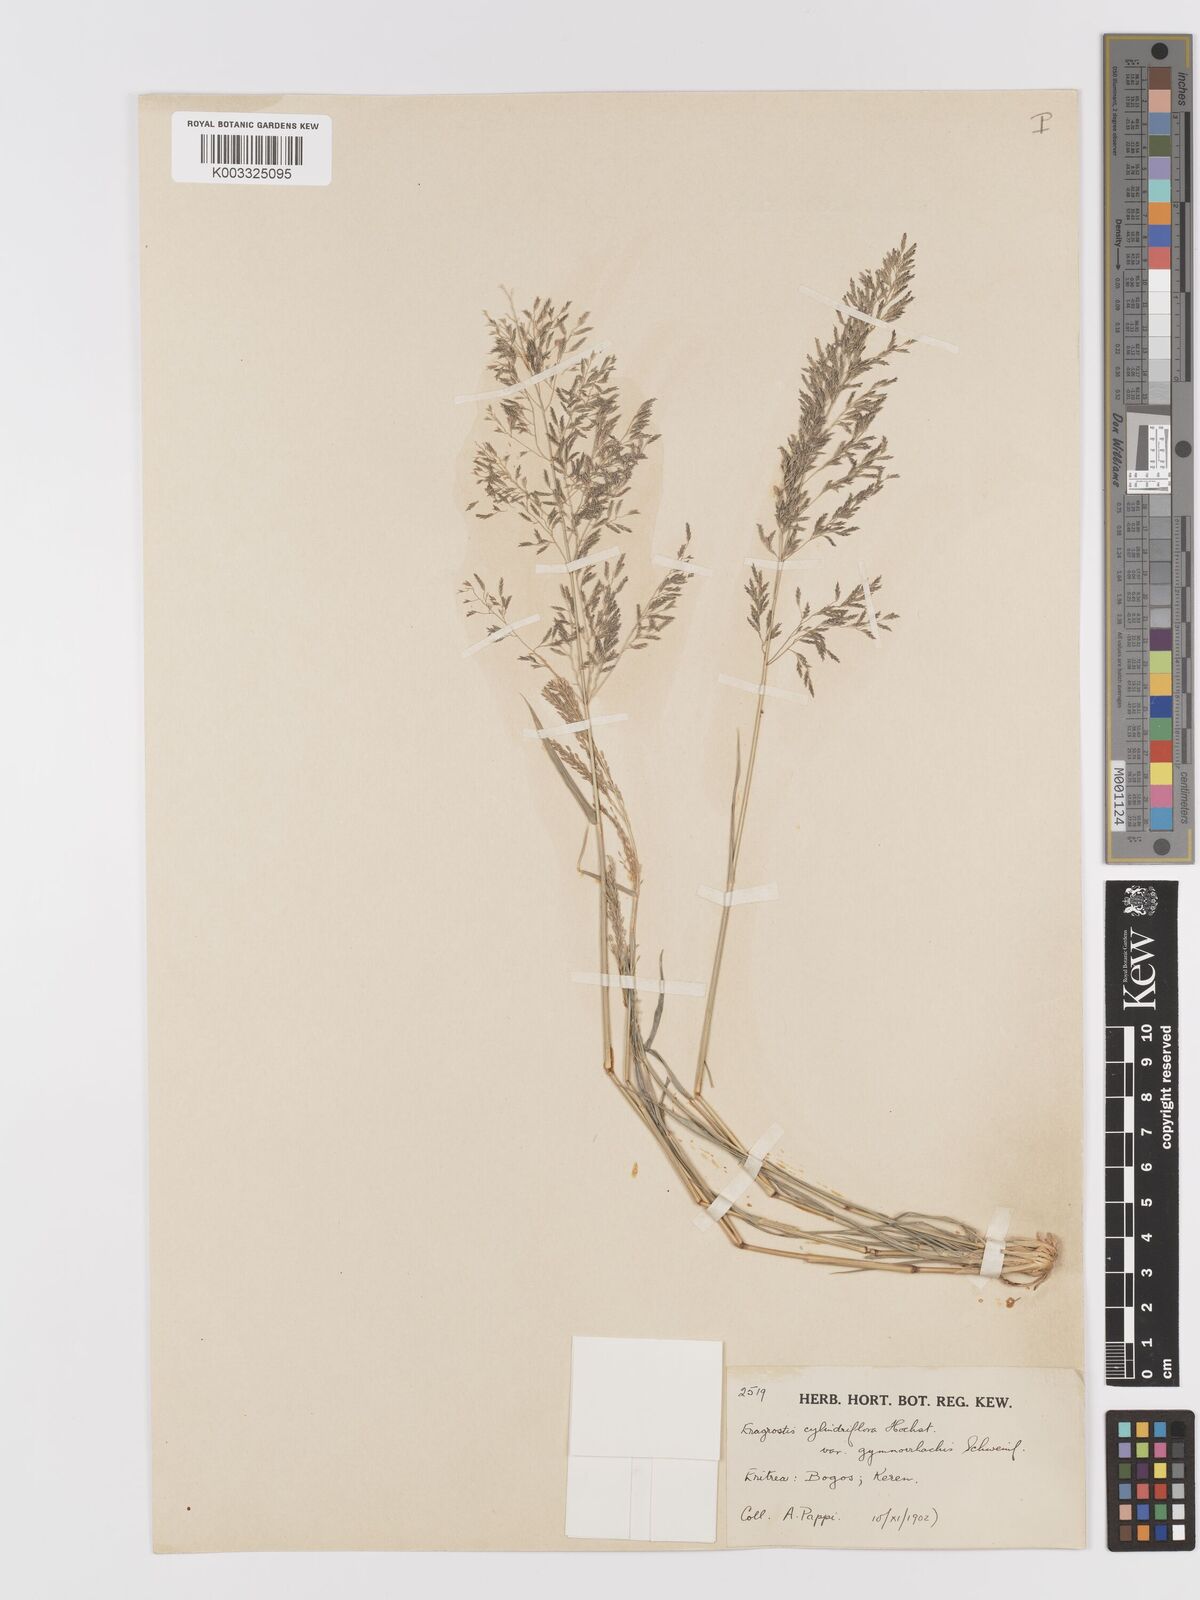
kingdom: Plantae
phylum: Tracheophyta
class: Liliopsida
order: Poales
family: Poaceae
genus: Eragrostis
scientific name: Eragrostis cylindriflora
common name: Cylinderflower lovegrass
